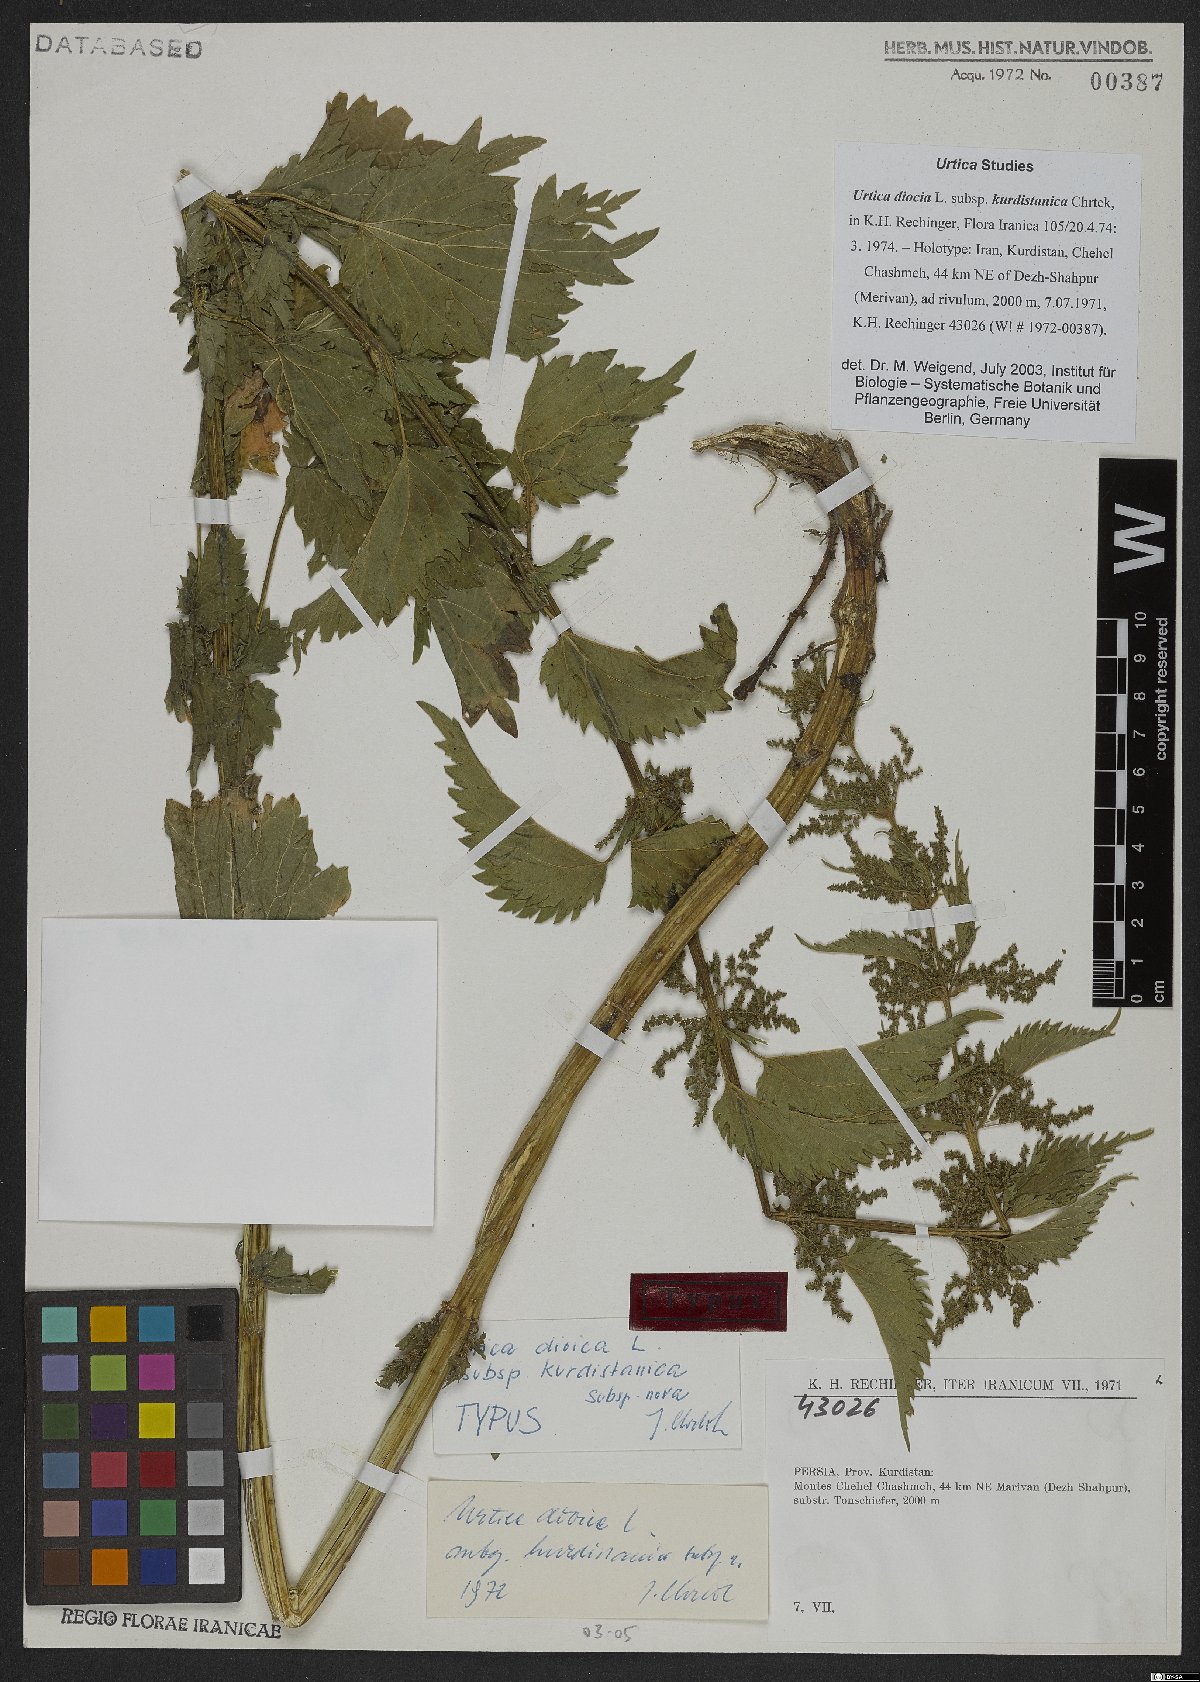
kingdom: Plantae
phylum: Tracheophyta
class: Magnoliopsida
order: Rosales
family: Urticaceae
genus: Urtica
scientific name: Urtica dioica
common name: Common nettle
